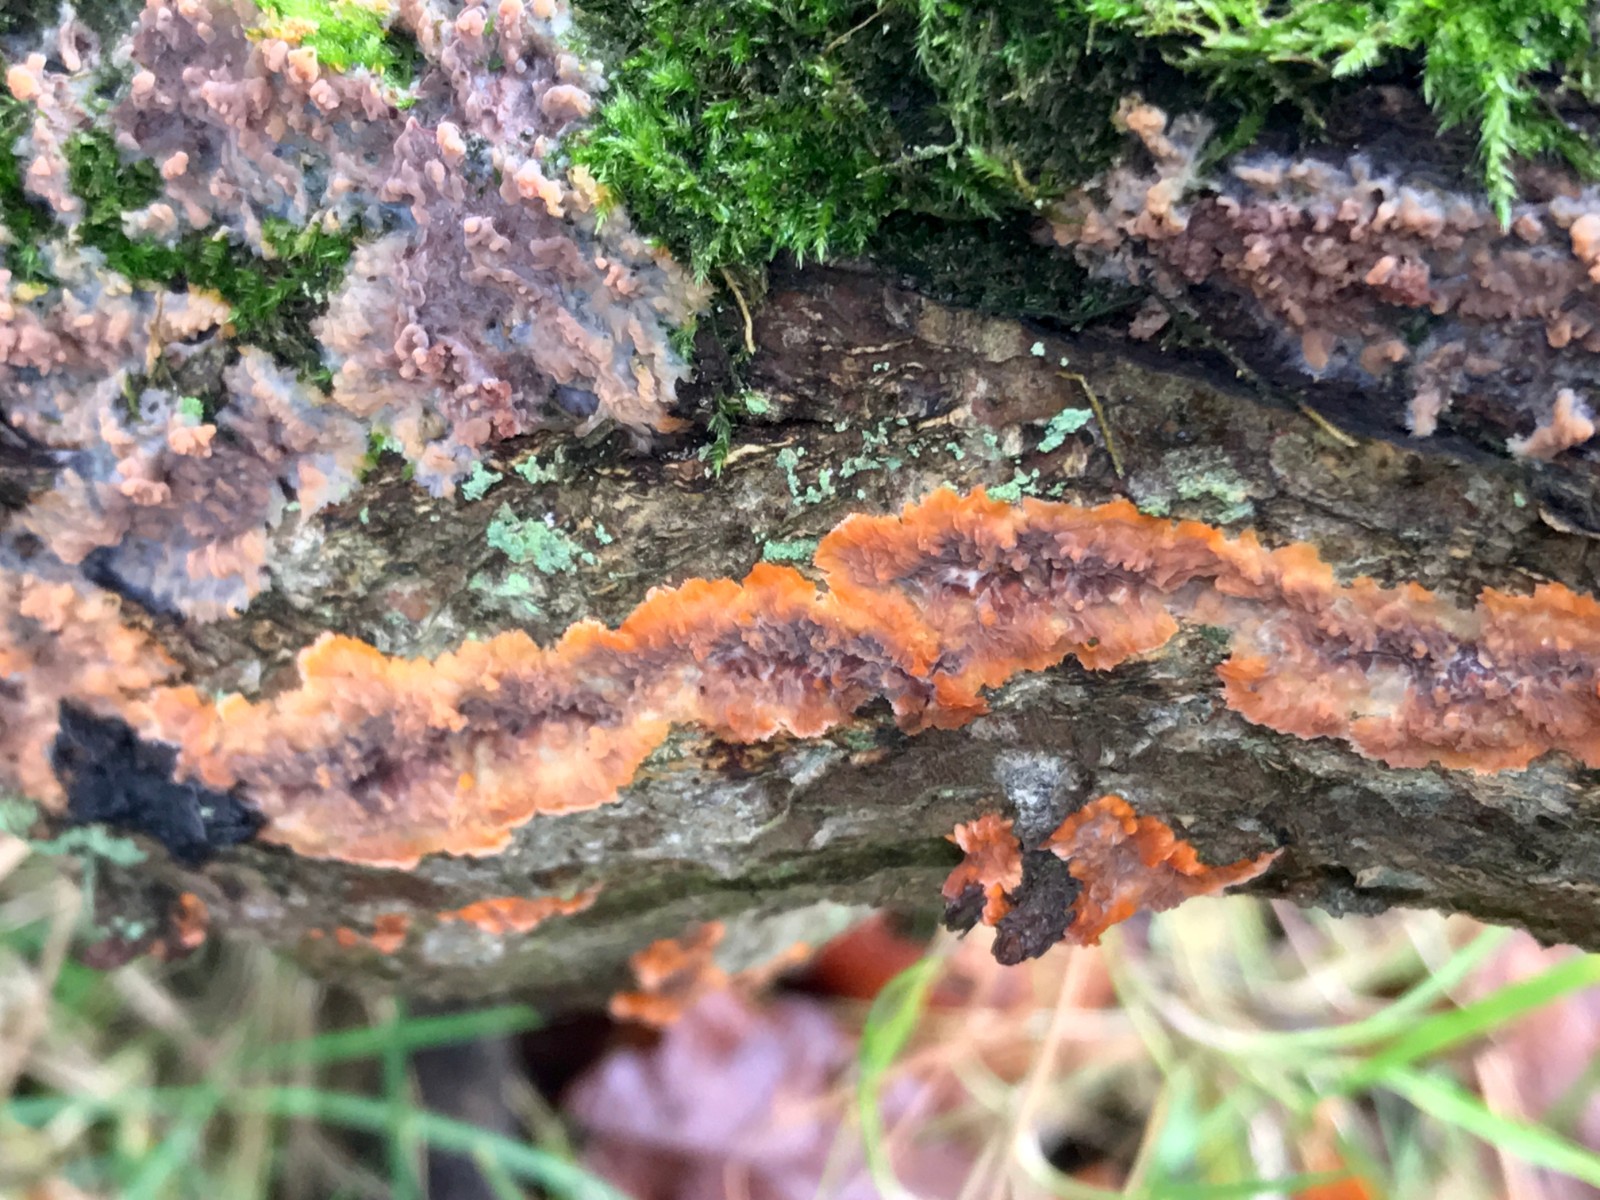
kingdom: Fungi
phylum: Basidiomycota
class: Agaricomycetes
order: Polyporales
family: Meruliaceae
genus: Phlebia
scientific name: Phlebia radiata
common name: stråle-åresvamp
